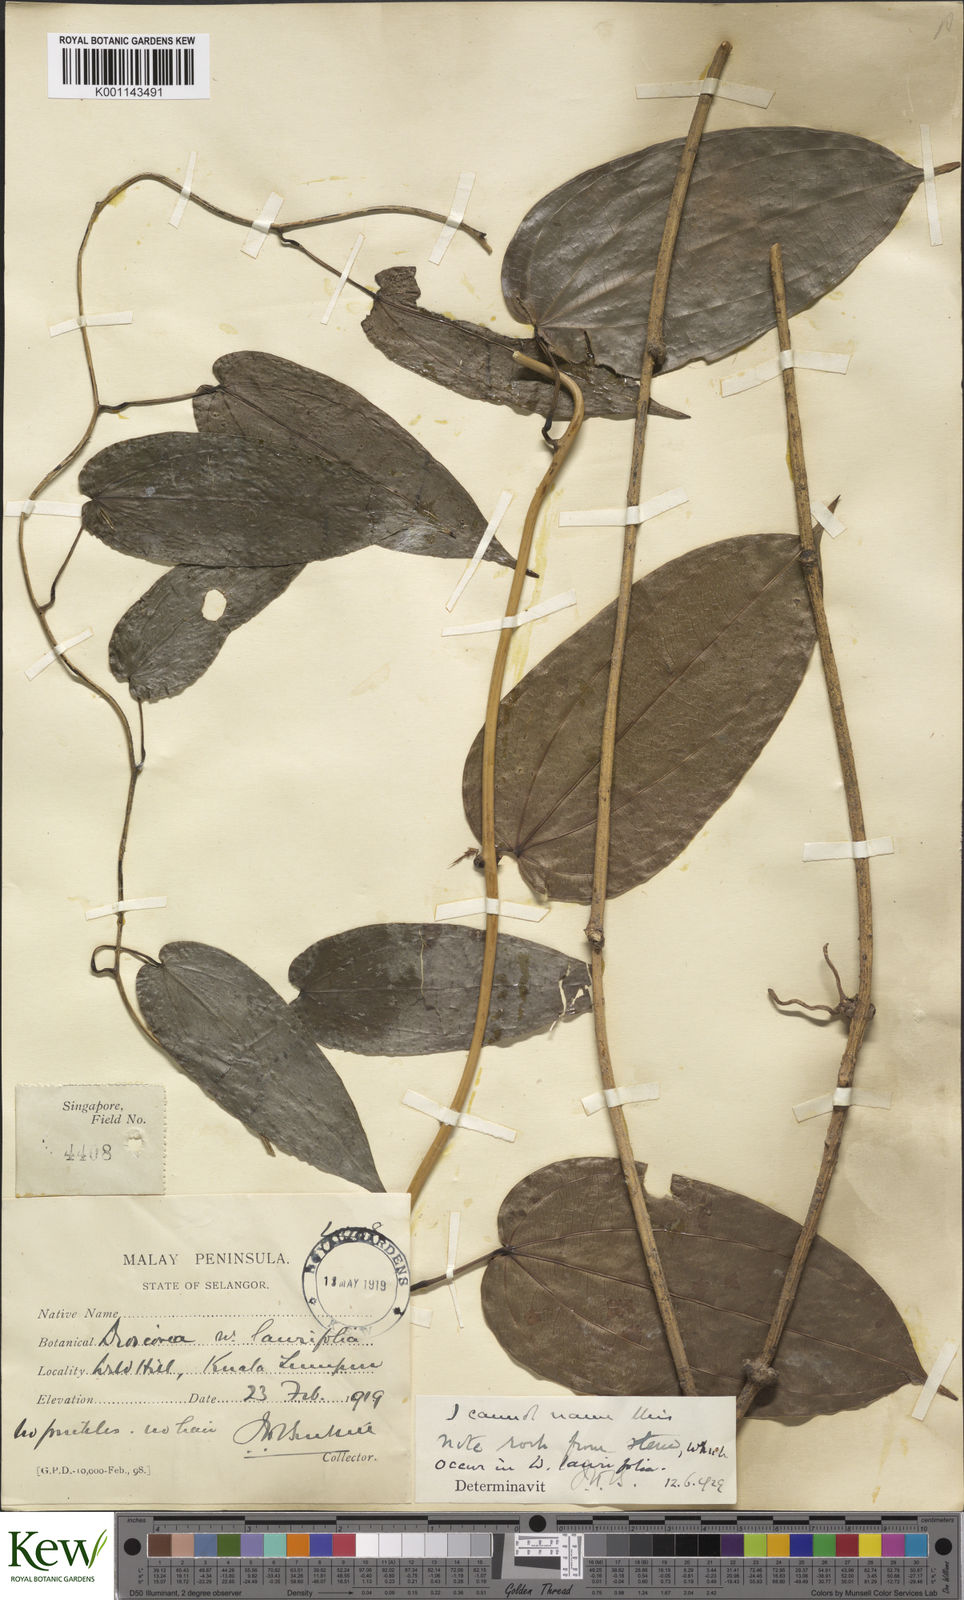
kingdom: Plantae
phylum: Tracheophyta
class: Liliopsida
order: Dioscoreales
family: Dioscoreaceae
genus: Dioscorea
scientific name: Dioscorea
